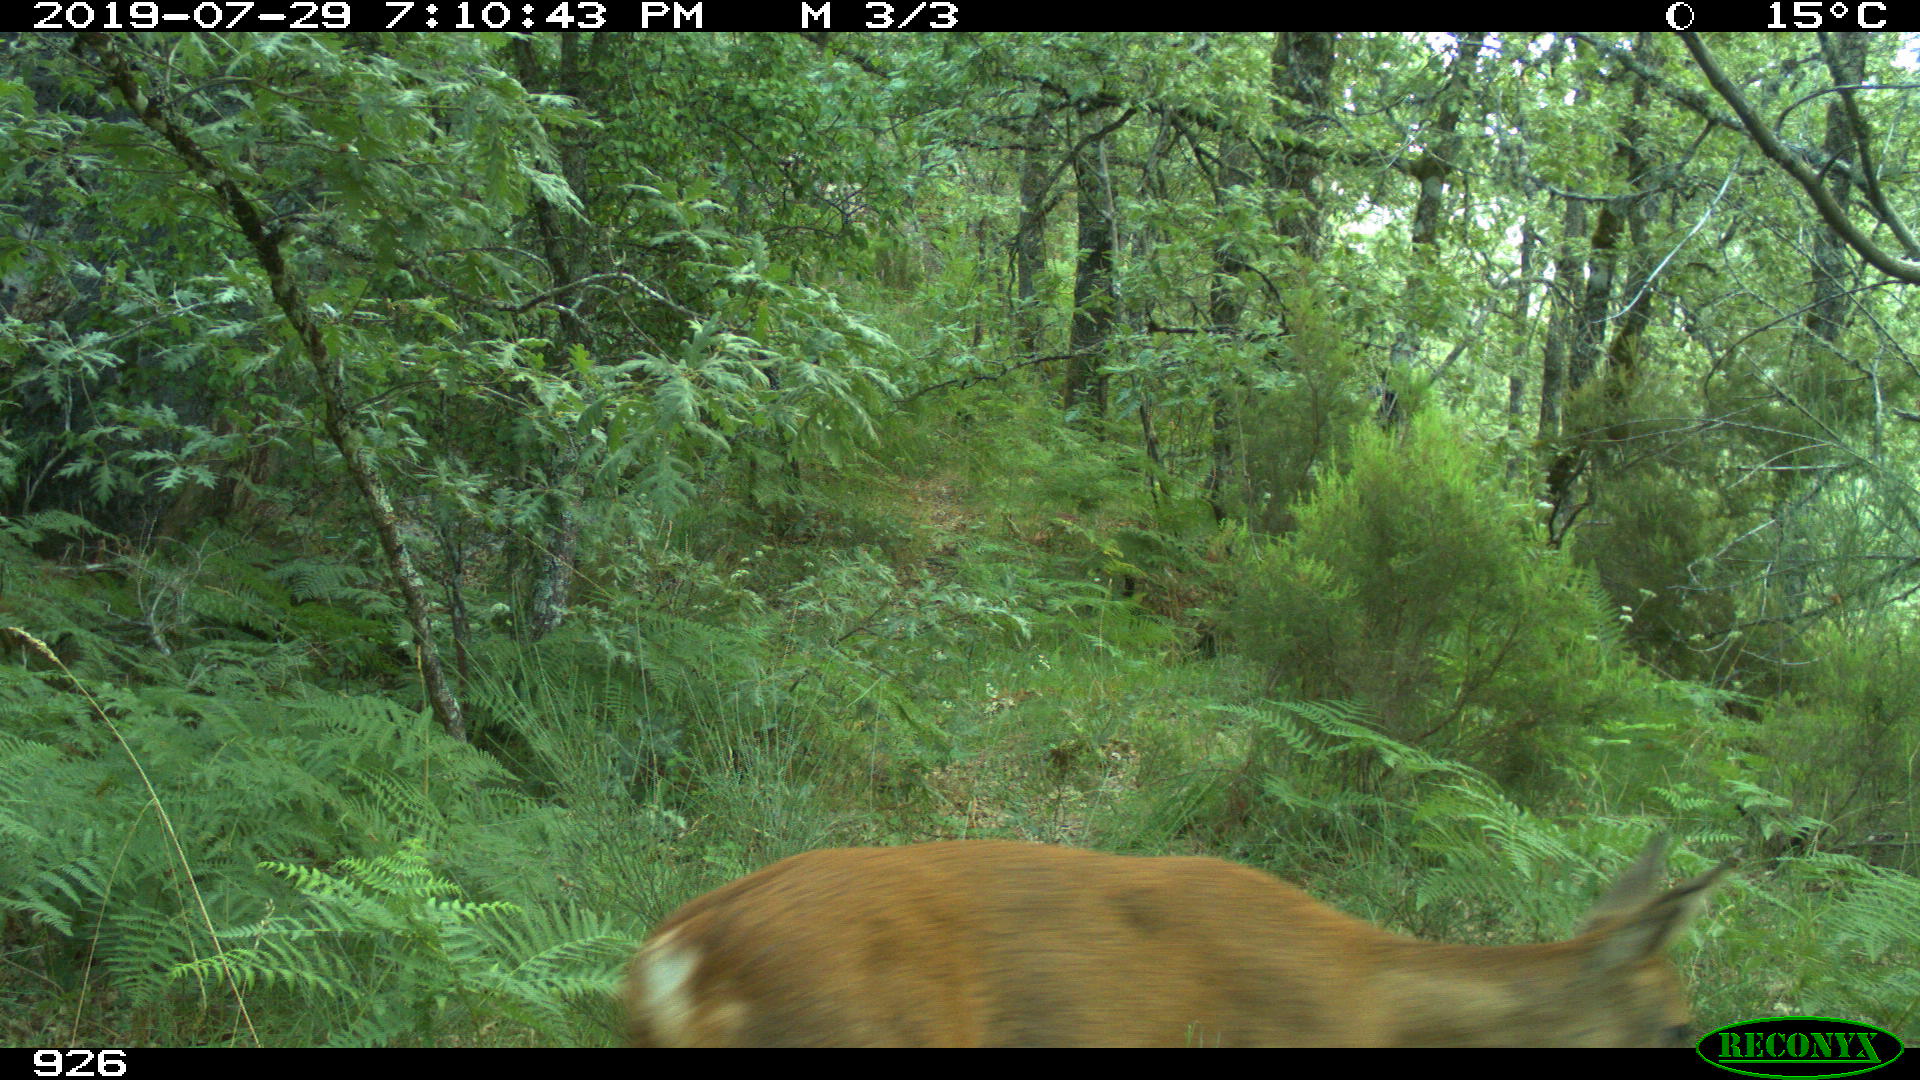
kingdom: Animalia
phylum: Chordata
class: Mammalia
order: Artiodactyla
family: Cervidae
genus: Capreolus
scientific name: Capreolus capreolus
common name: Western roe deer
